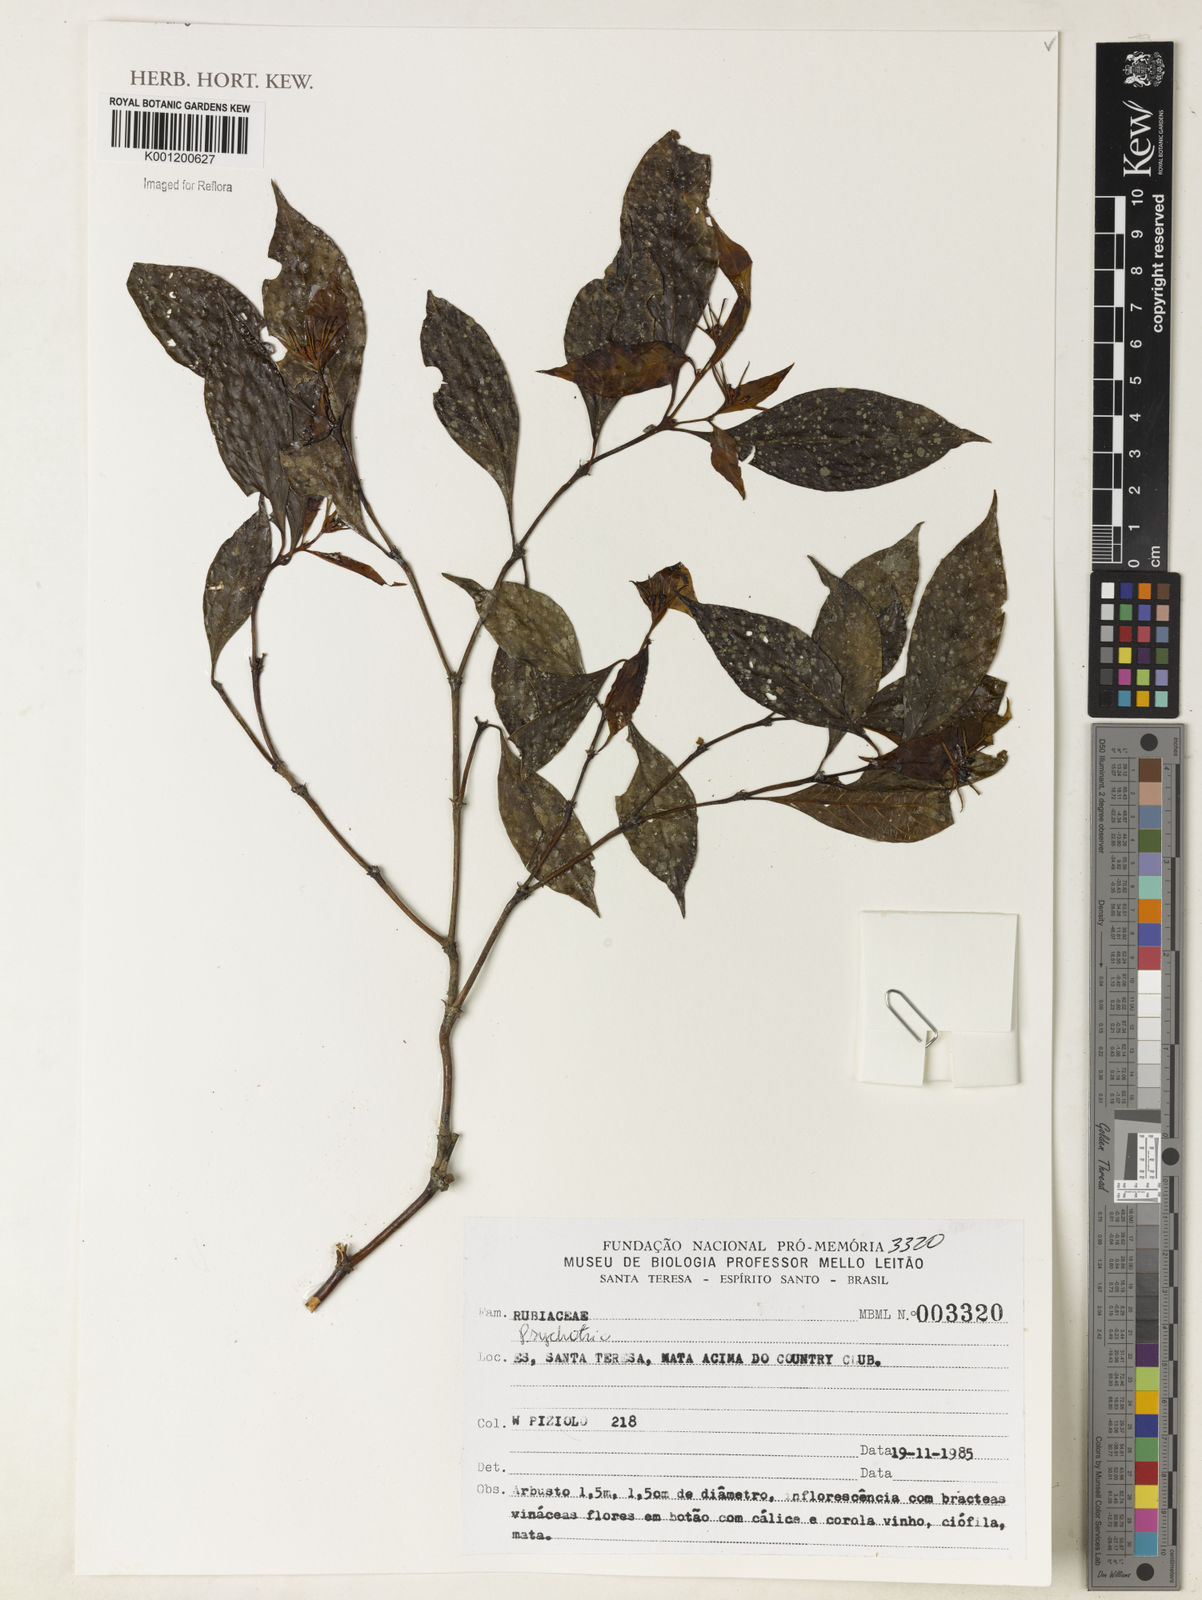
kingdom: Plantae
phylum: Tracheophyta
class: Magnoliopsida
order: Gentianales
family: Rubiaceae
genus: Psychotria
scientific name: Psychotria
